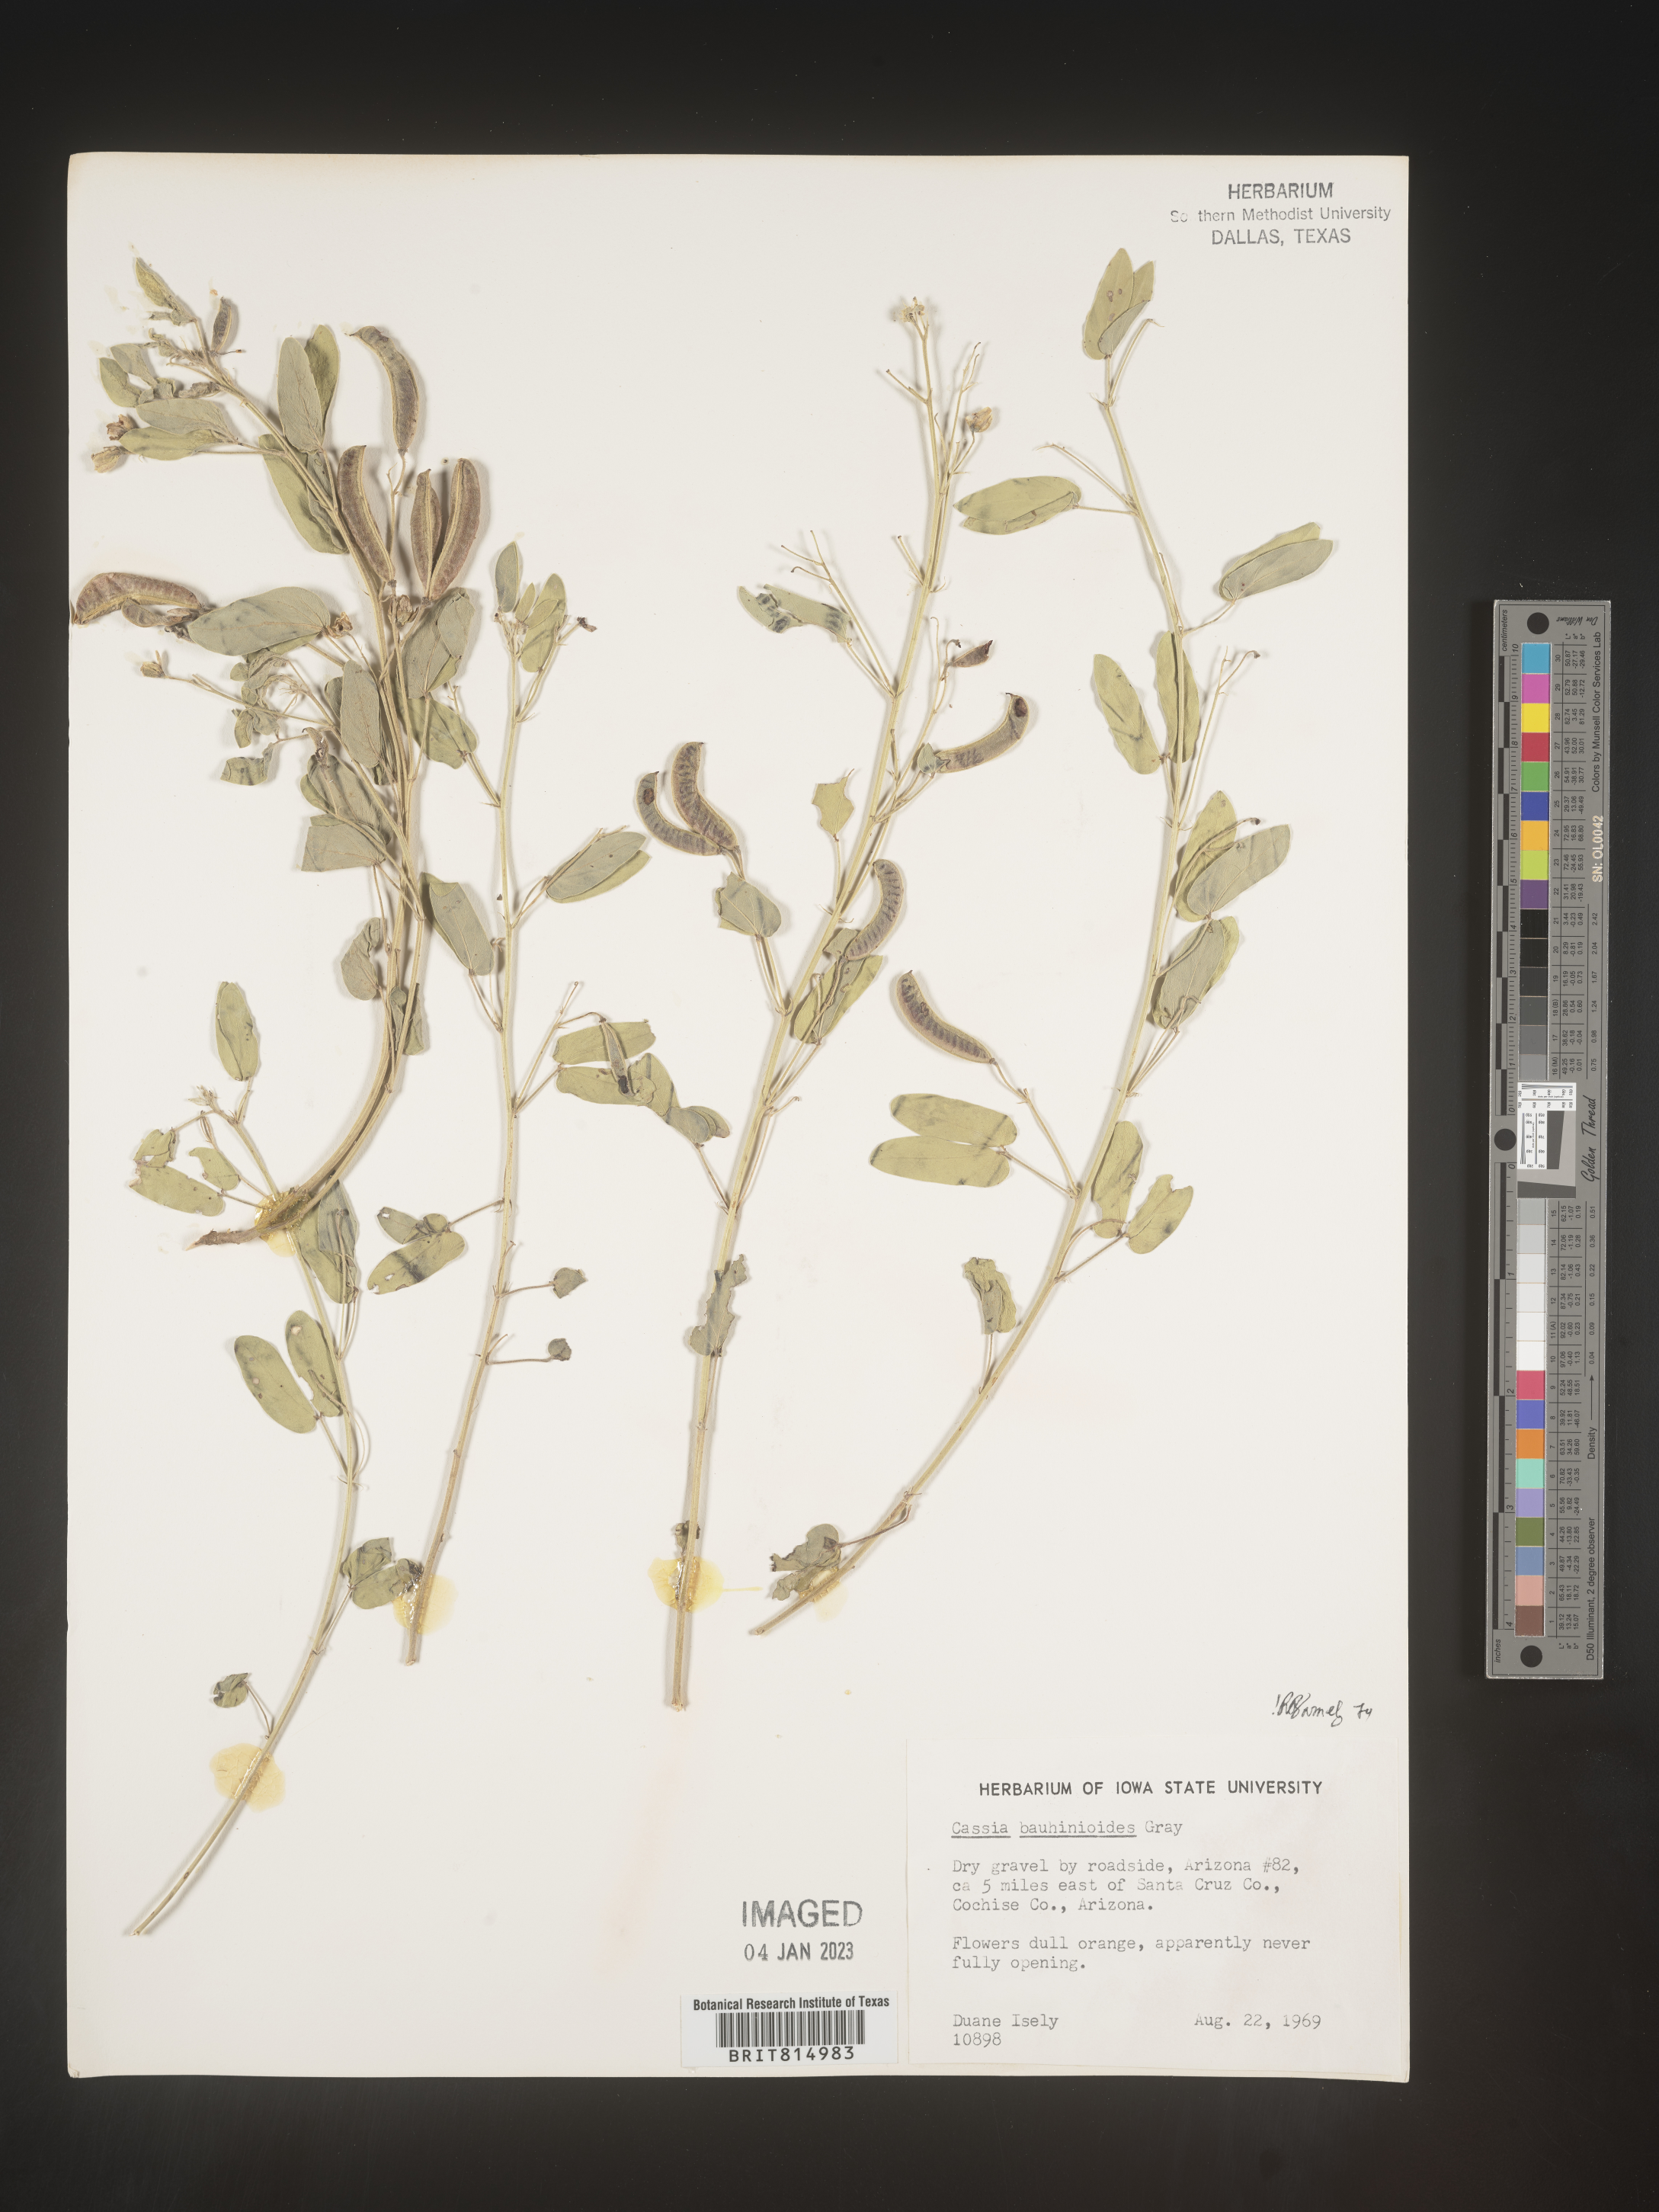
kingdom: Plantae
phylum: Tracheophyta
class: Magnoliopsida
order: Fabales
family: Fabaceae
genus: Senna
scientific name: Senna bauhinioides
